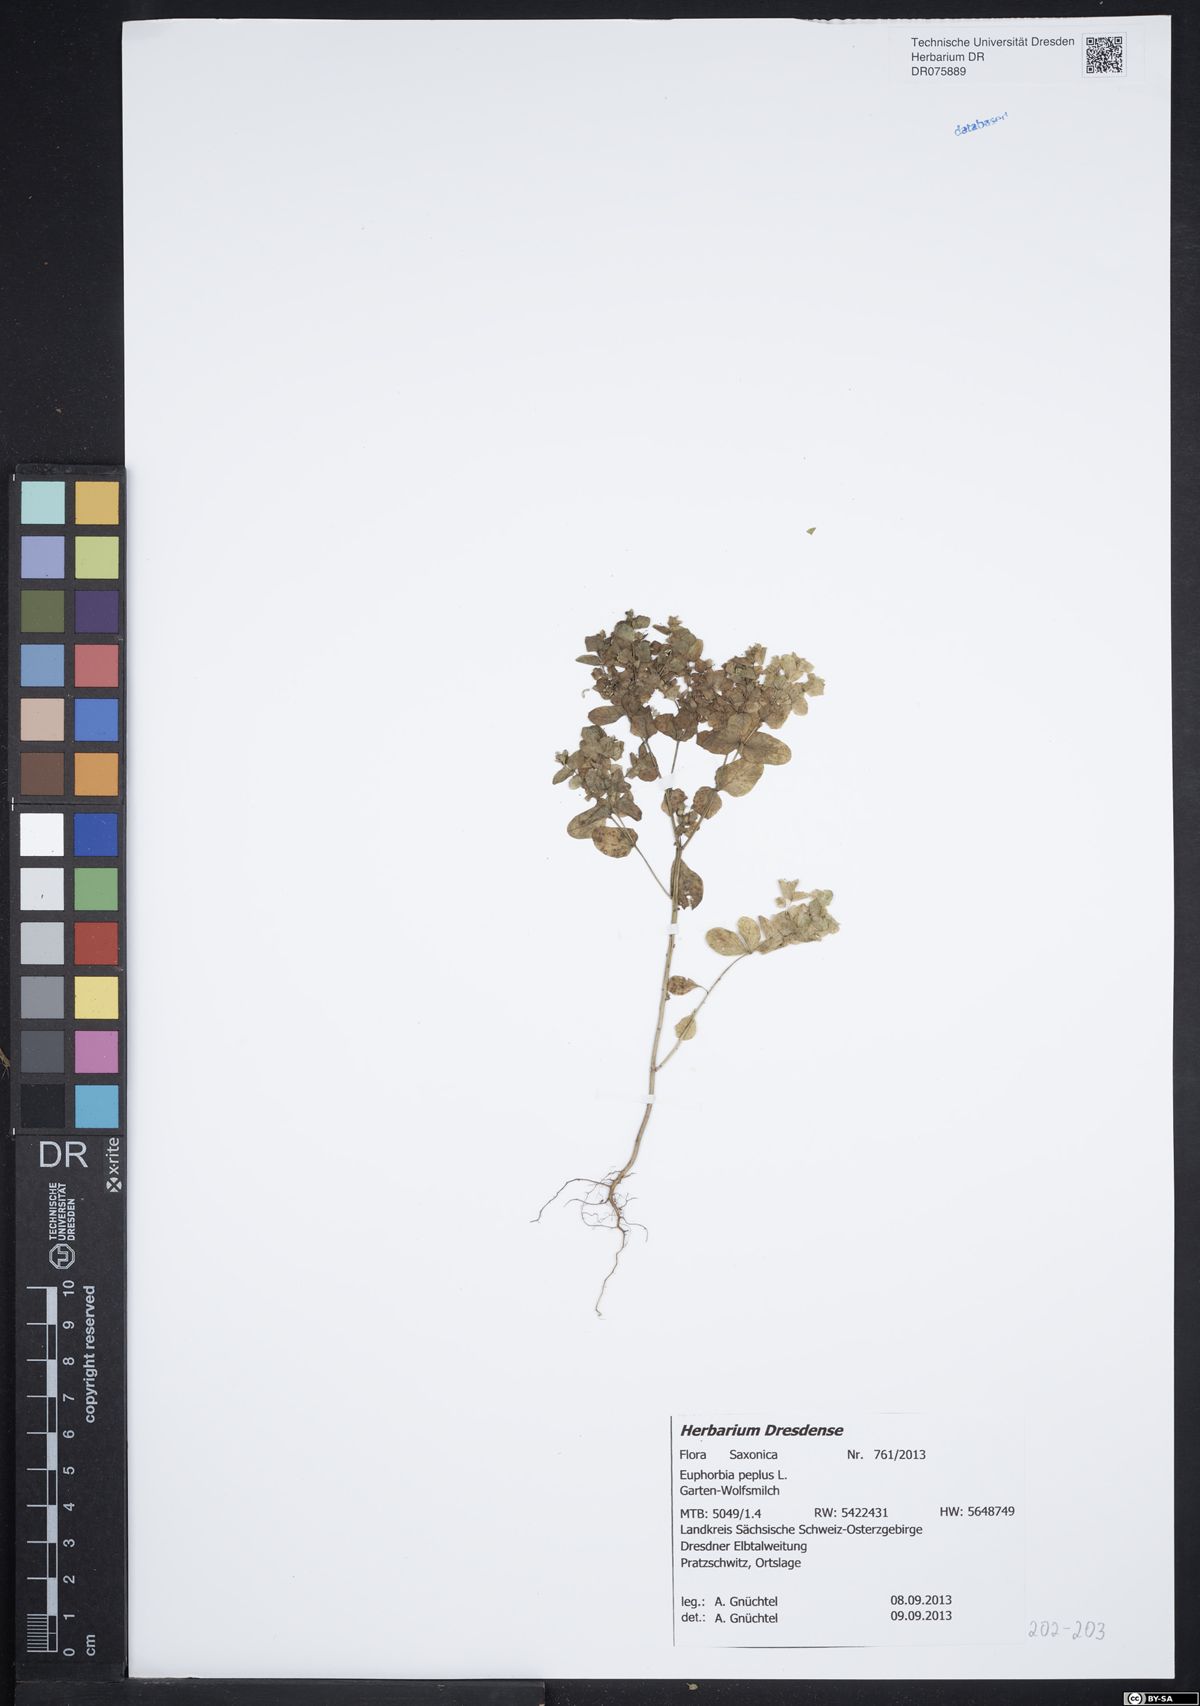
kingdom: Plantae
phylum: Tracheophyta
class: Magnoliopsida
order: Malpighiales
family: Euphorbiaceae
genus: Euphorbia
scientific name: Euphorbia peplus
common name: Petty spurge
